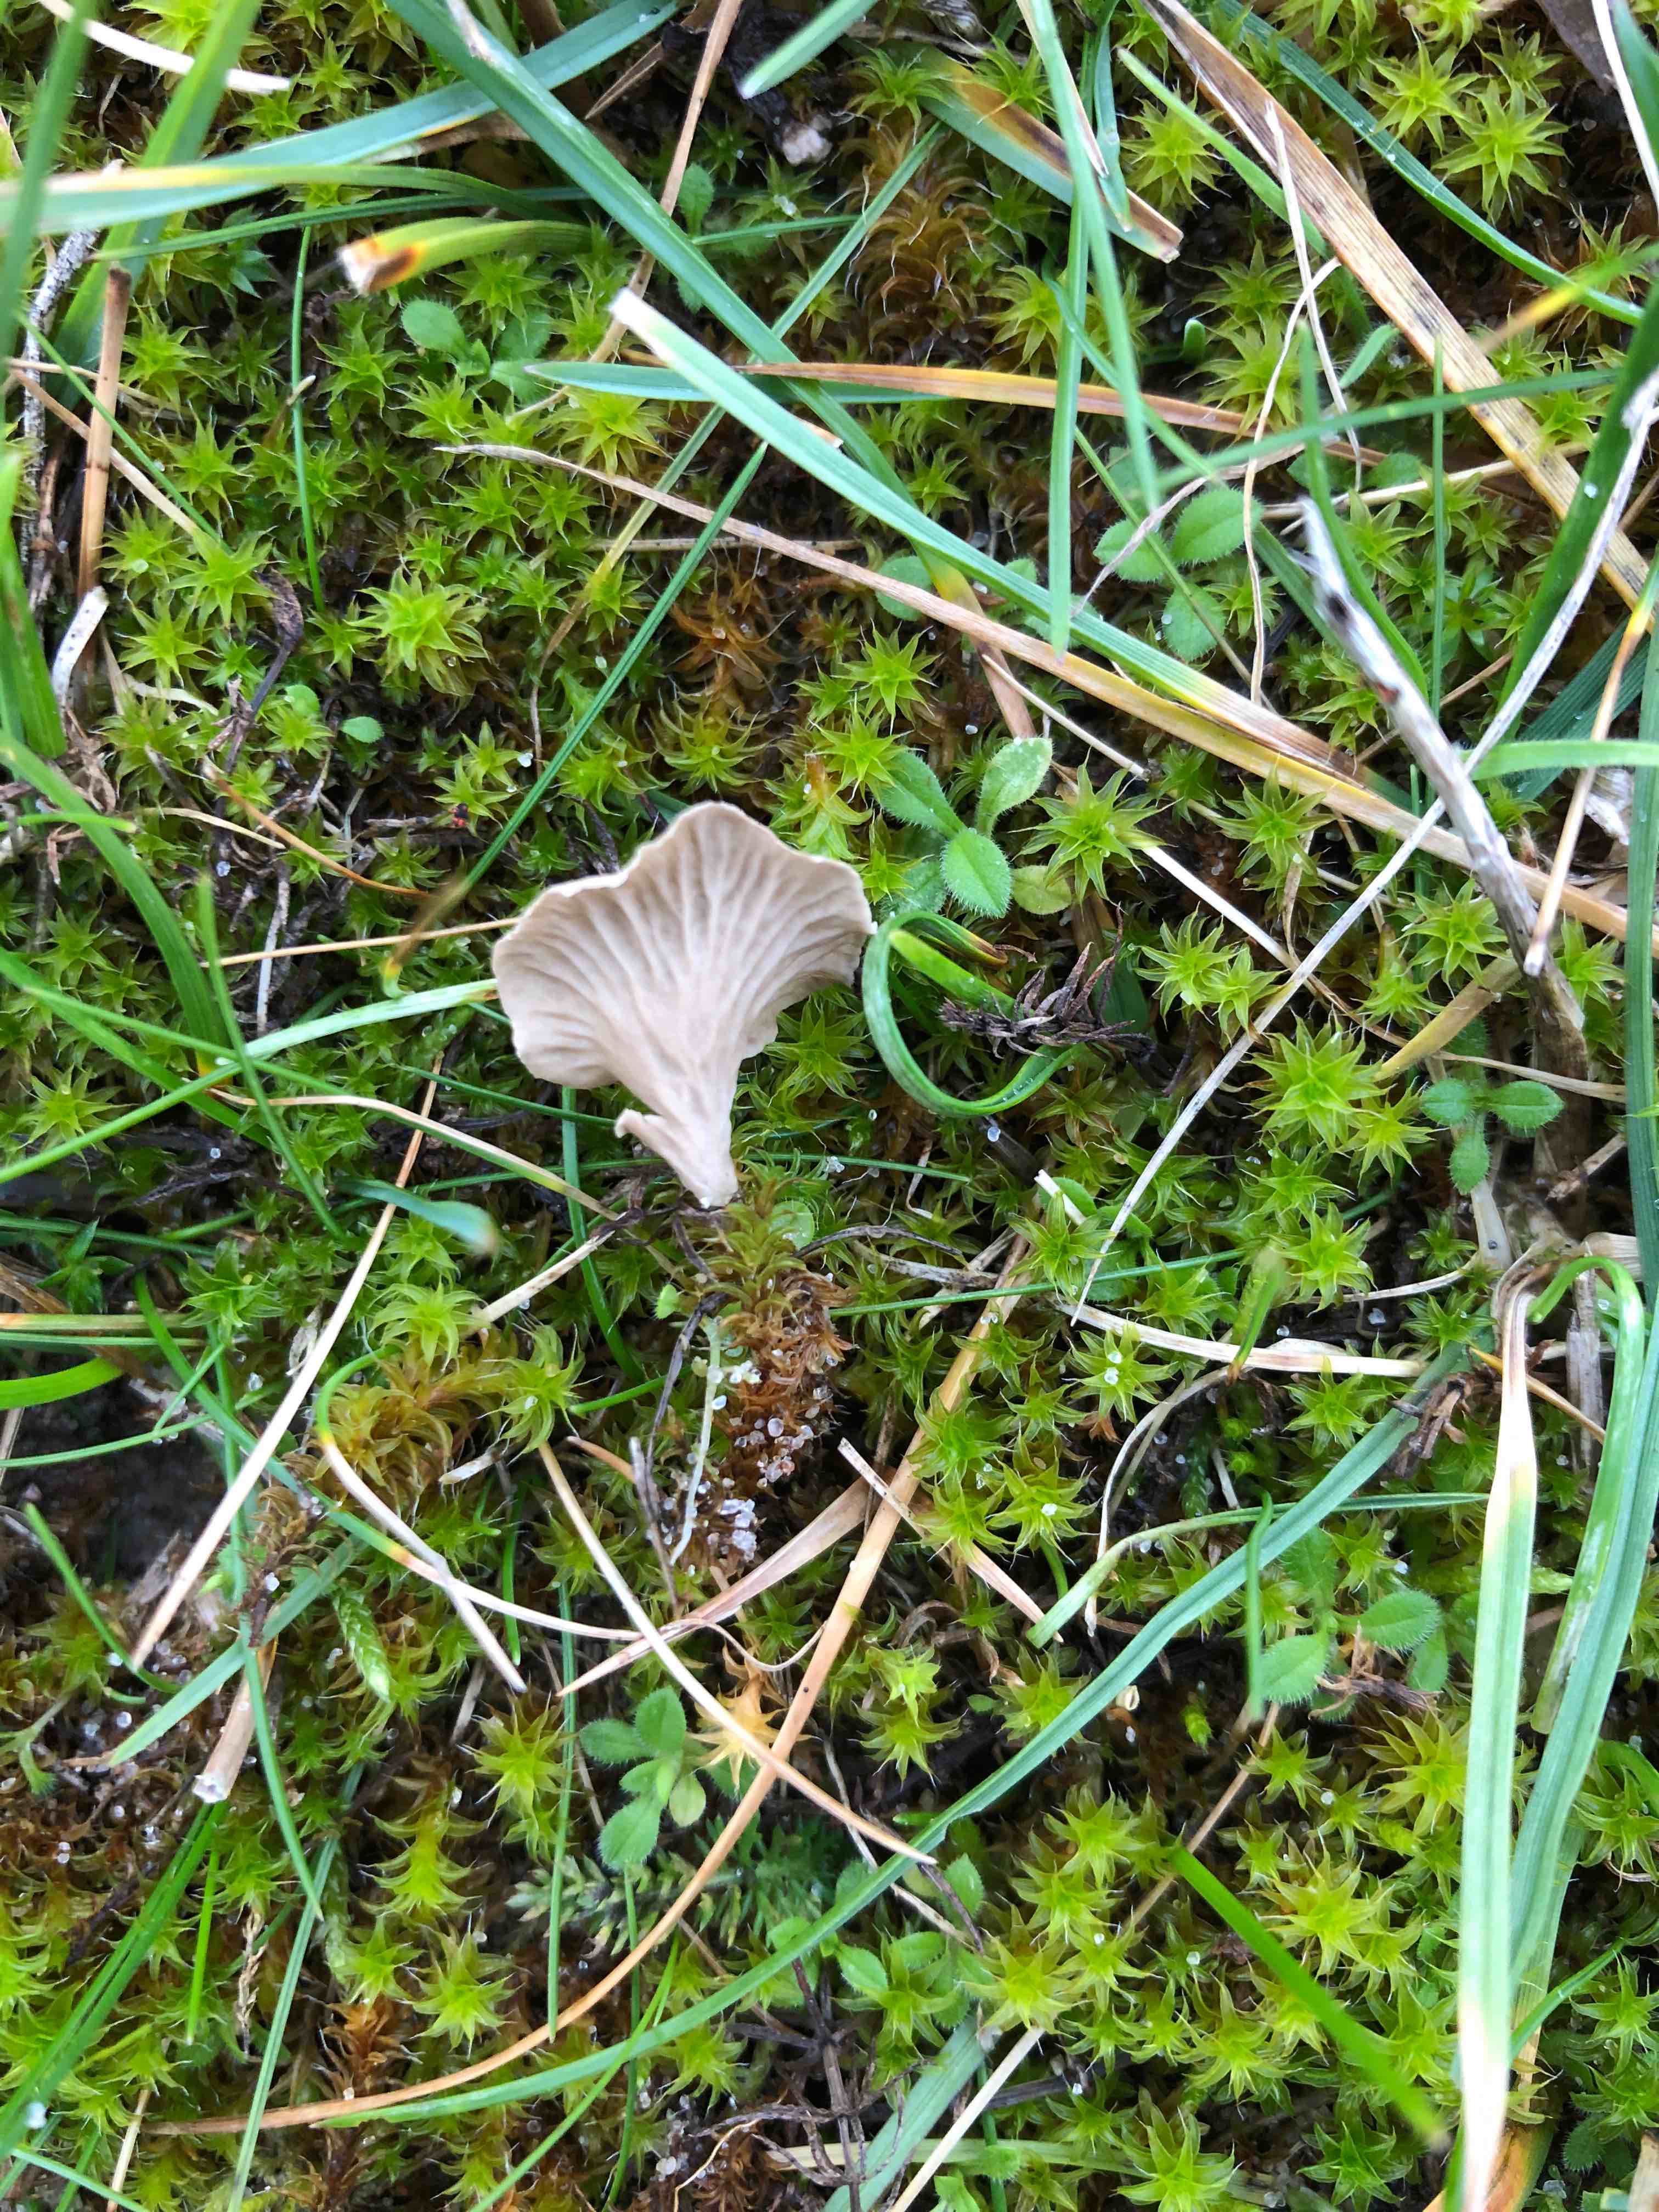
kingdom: Fungi
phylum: Basidiomycota
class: Agaricomycetes
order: Agaricales
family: Hygrophoraceae
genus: Arrhenia
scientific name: Arrhenia spathulata
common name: skæv fontænehat
